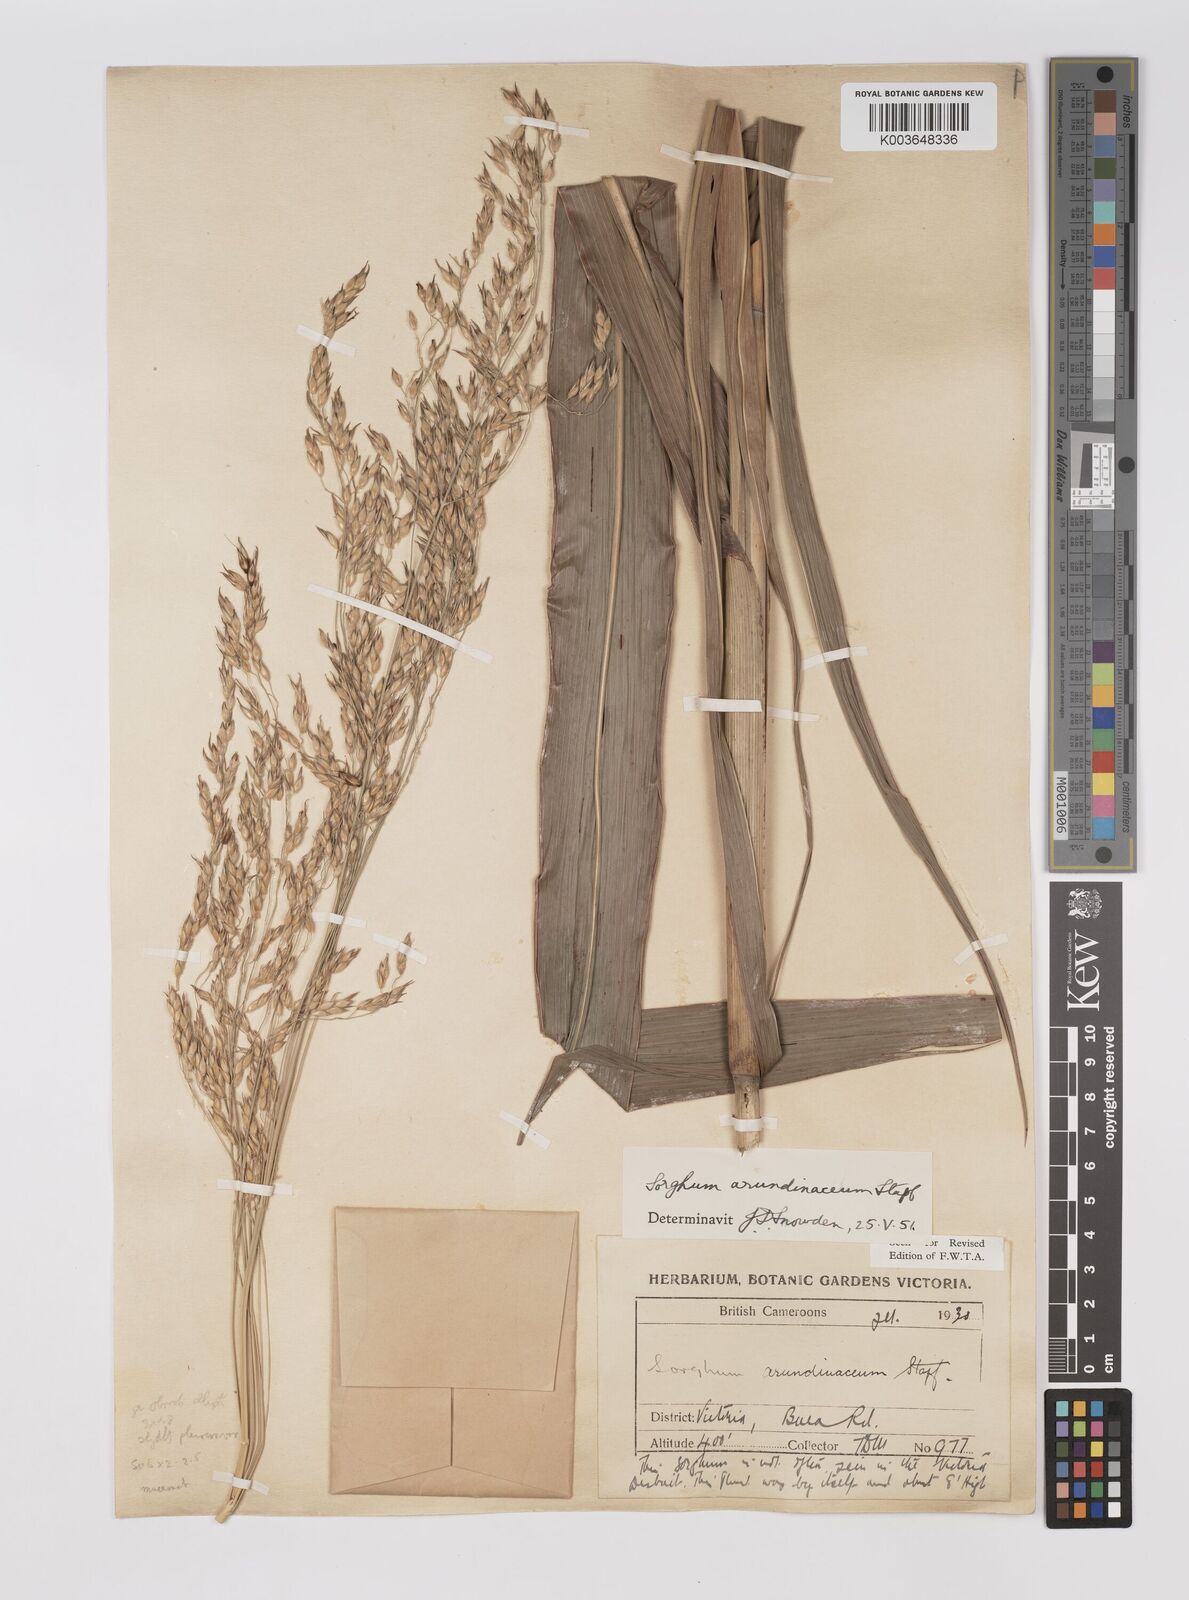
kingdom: Plantae
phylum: Tracheophyta
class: Liliopsida
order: Poales
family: Poaceae
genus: Sorghum
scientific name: Sorghum arundinaceum
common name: Sorghum
